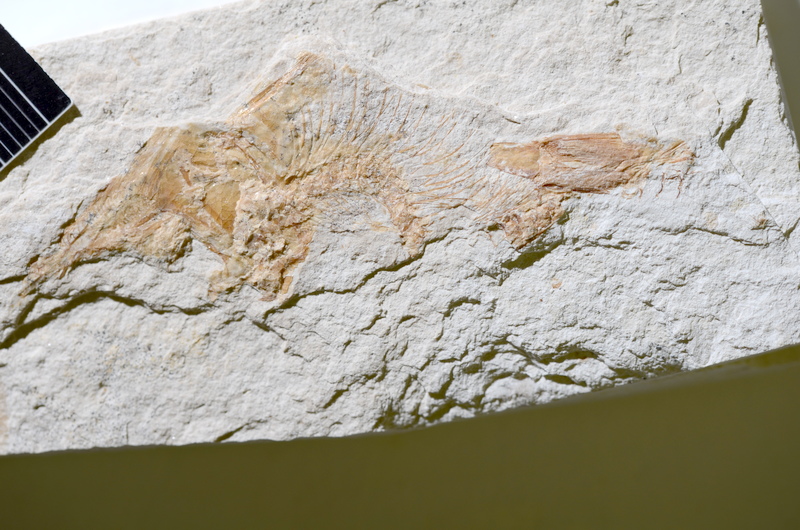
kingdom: Animalia
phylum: Chordata
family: Ascalaboidae
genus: Tharsis
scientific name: Tharsis dubius
